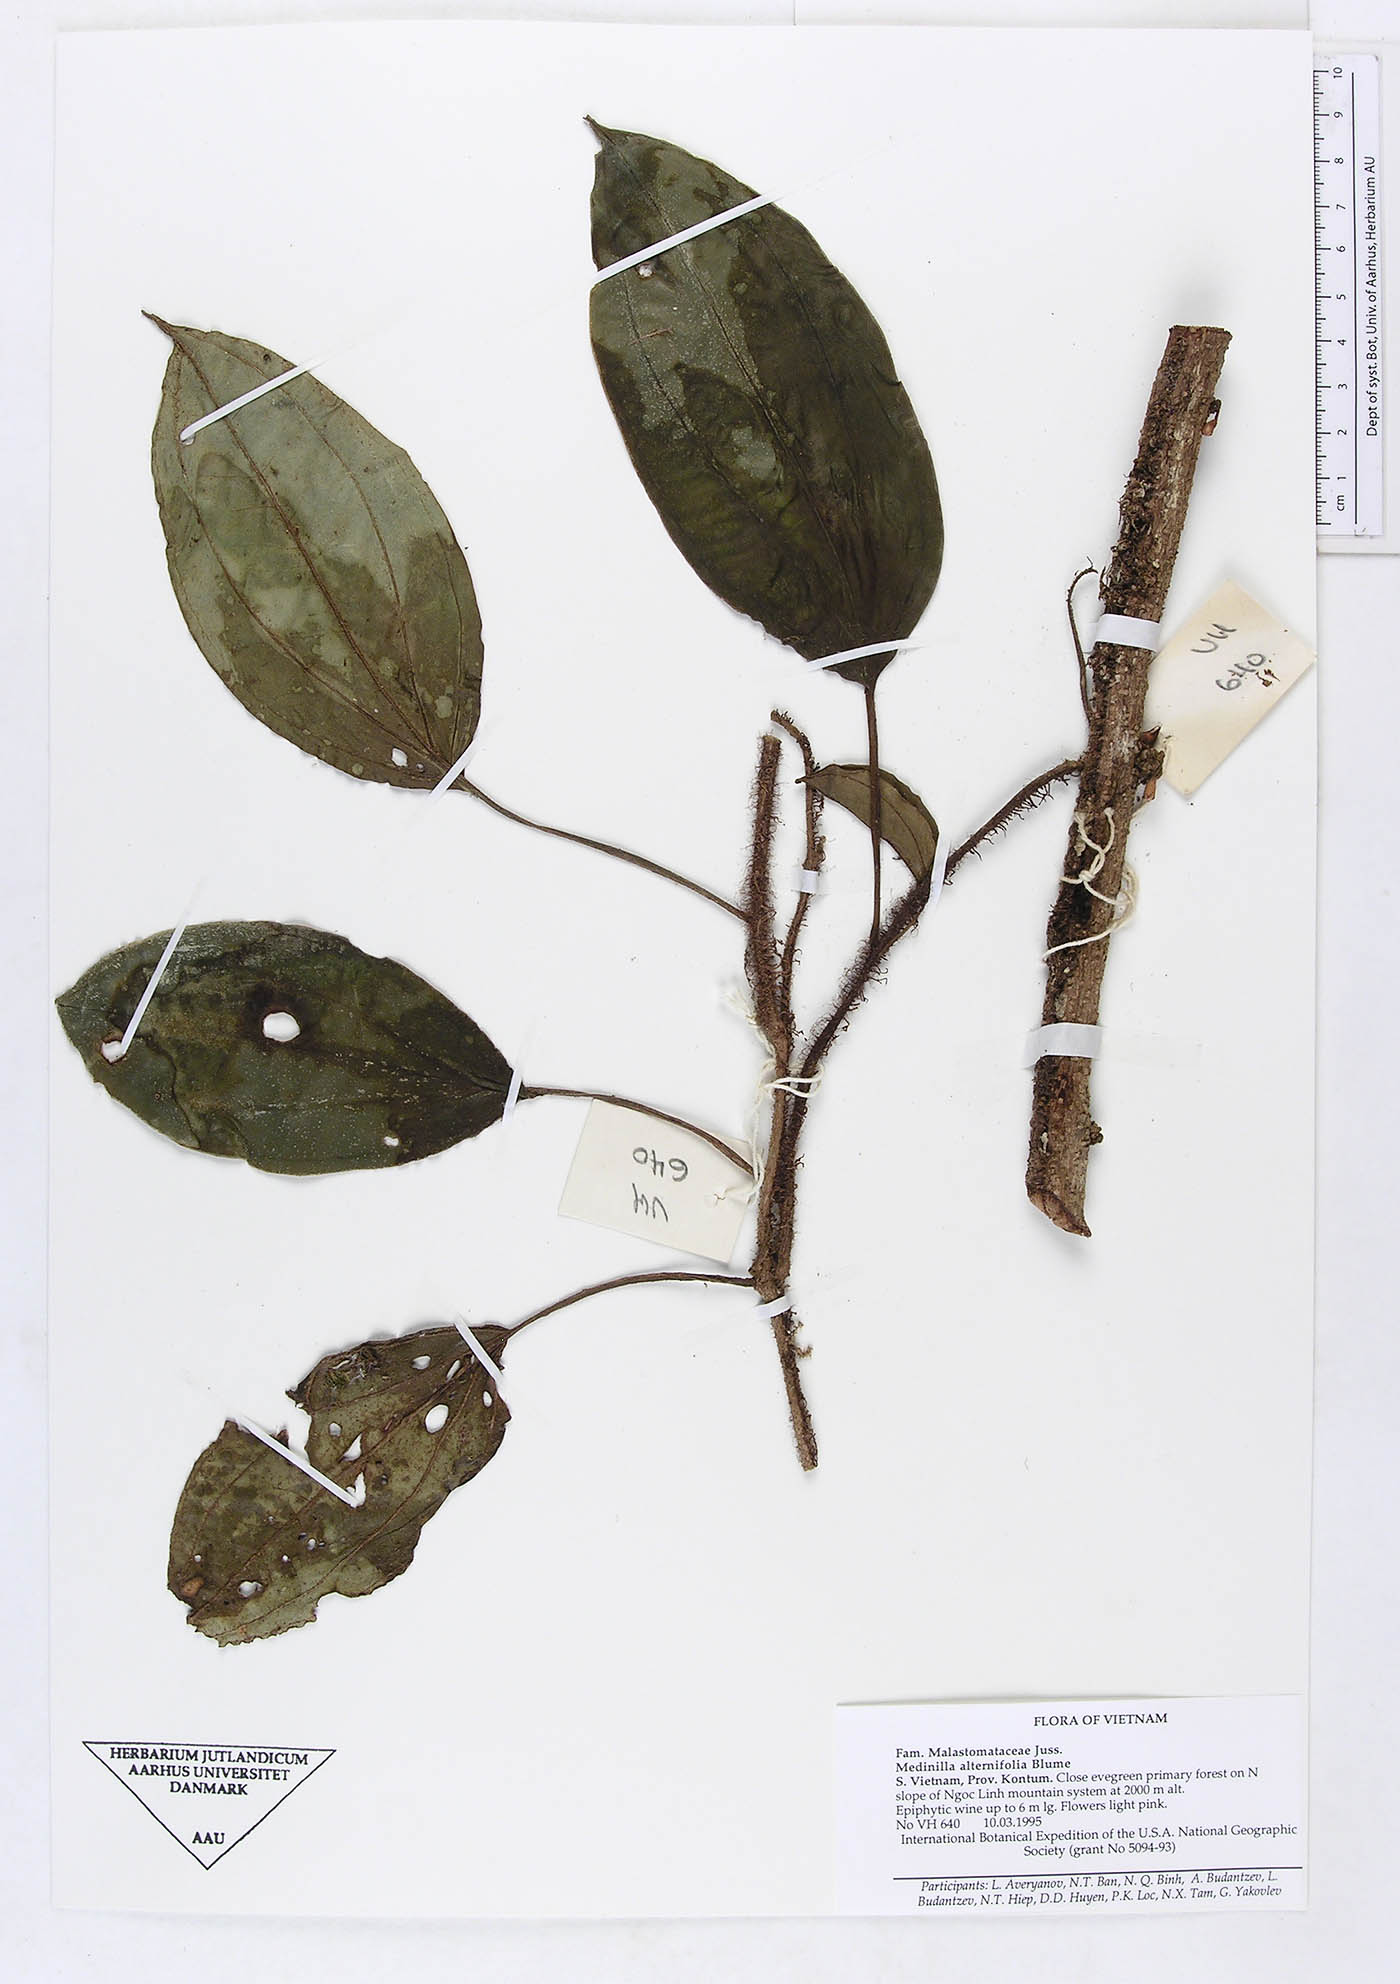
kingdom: Plantae
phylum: Tracheophyta
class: Magnoliopsida
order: Myrtales
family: Melastomataceae
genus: Heteroblemma
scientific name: Heteroblemma bisetosum
